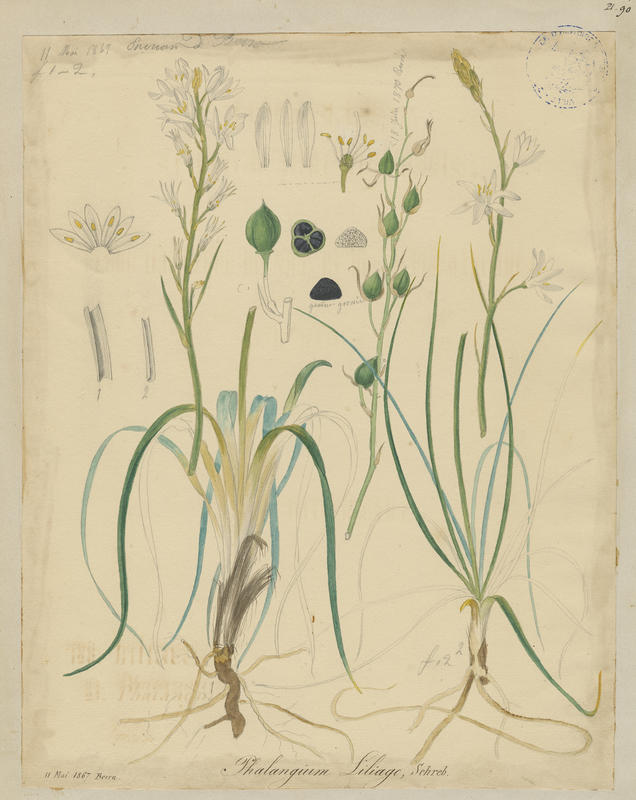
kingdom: Plantae
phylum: Tracheophyta
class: Liliopsida
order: Asparagales
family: Asparagaceae
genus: Anthericum
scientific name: Anthericum liliago
